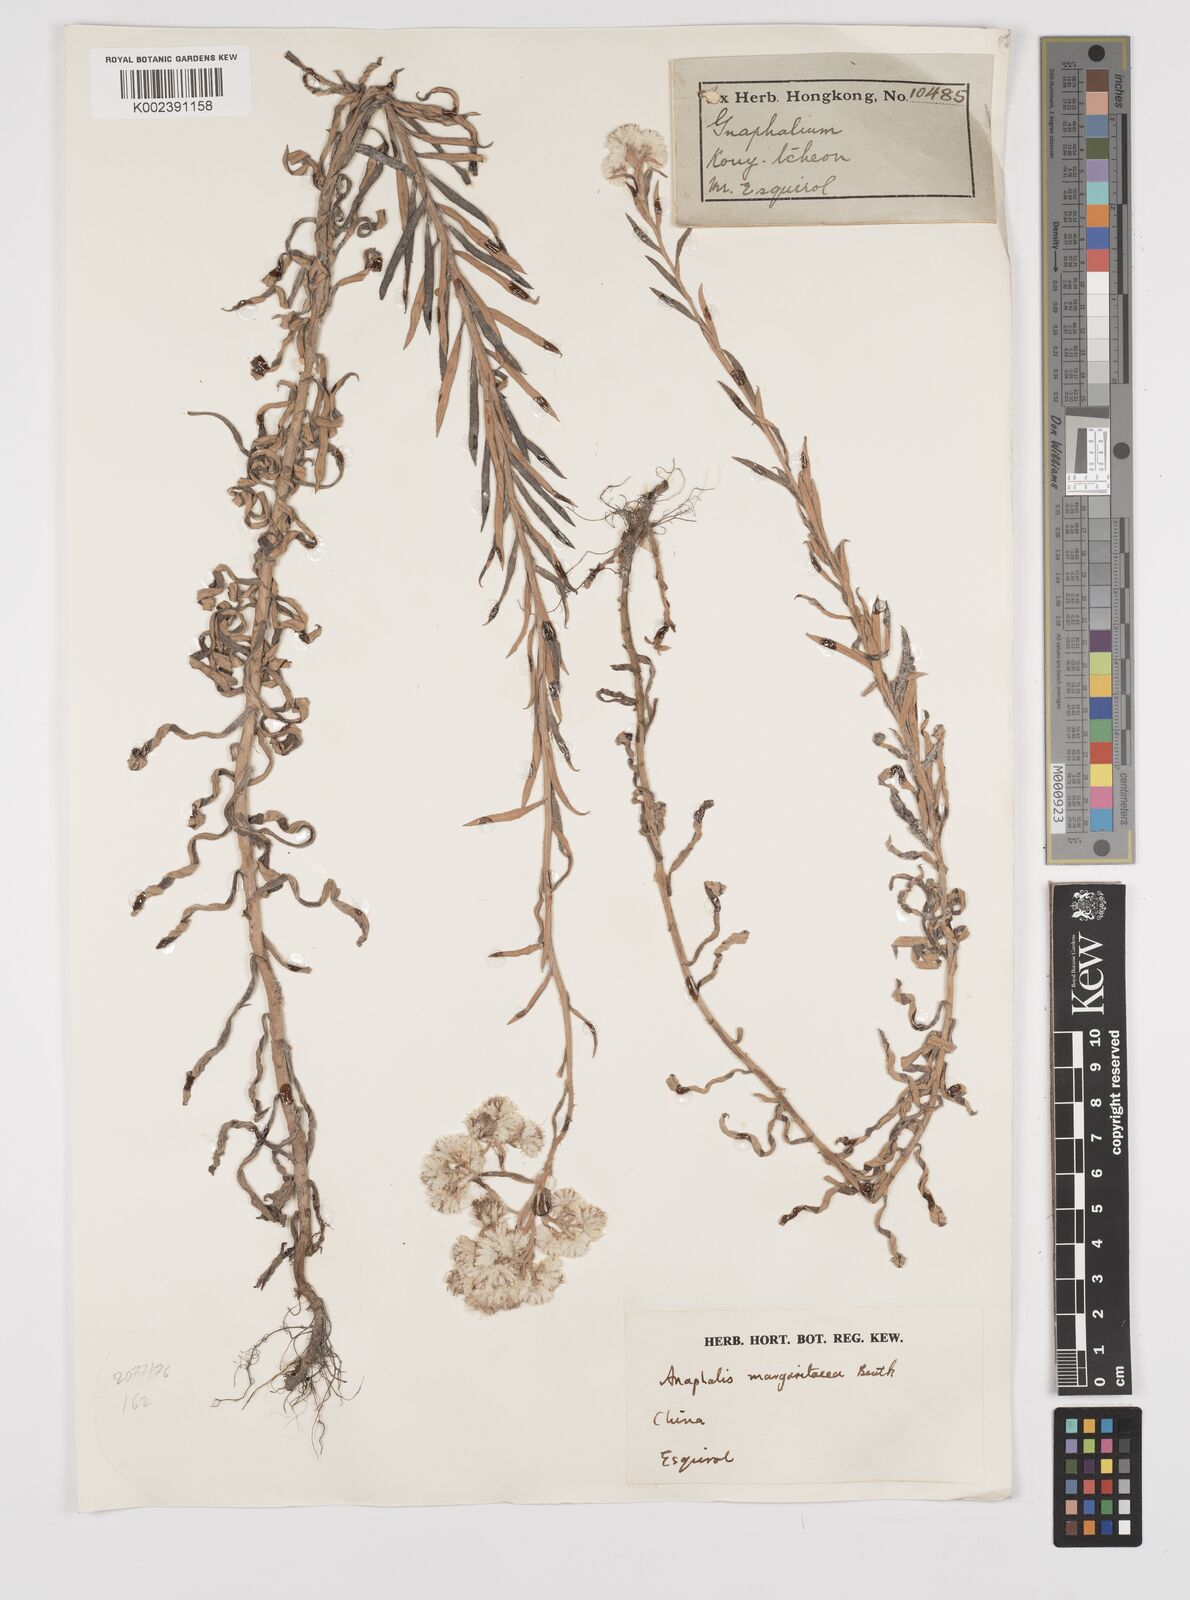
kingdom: Plantae
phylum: Tracheophyta
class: Magnoliopsida
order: Asterales
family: Asteraceae
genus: Anaphalis
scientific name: Anaphalis margaritacea
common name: Pearly everlasting
